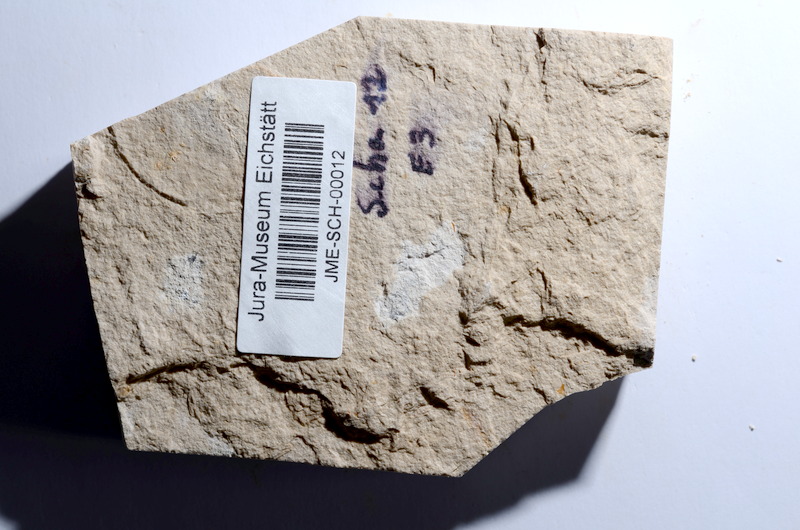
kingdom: Animalia
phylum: Chordata
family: Ascalaboidae
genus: Tharsis
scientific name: Tharsis dubius
